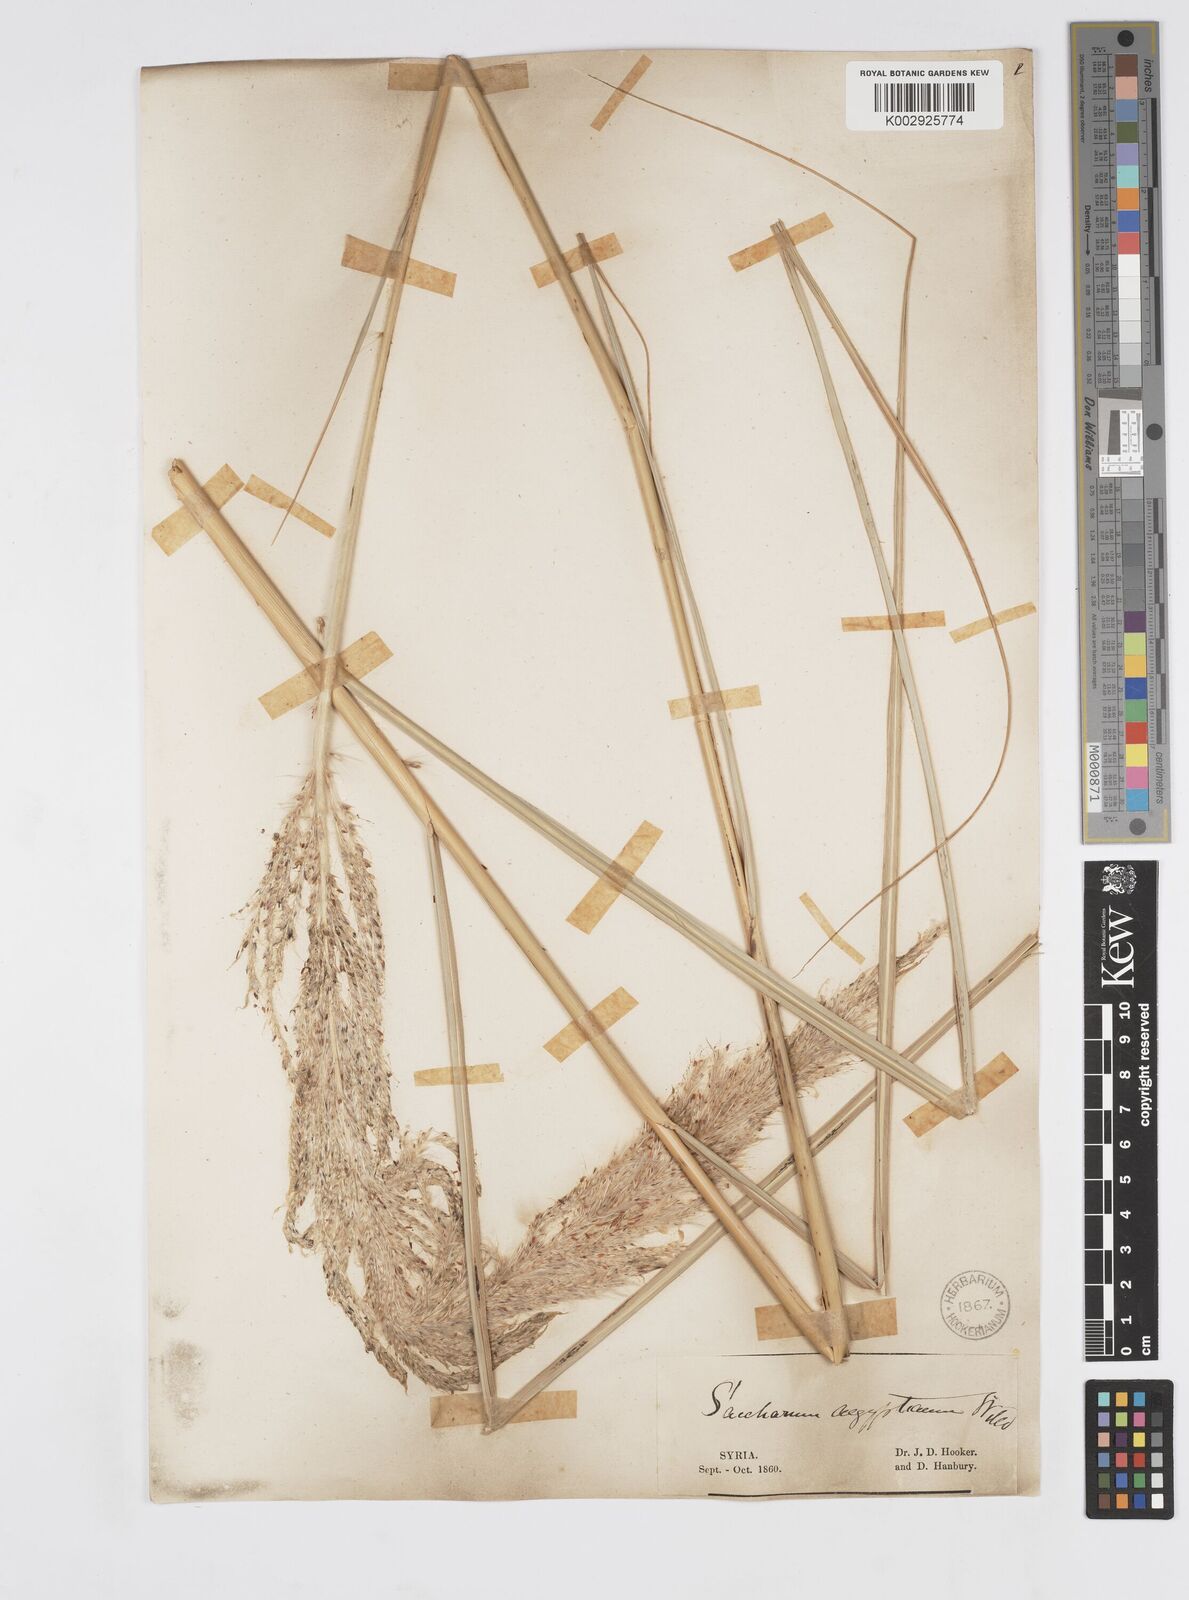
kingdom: Plantae
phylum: Tracheophyta
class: Liliopsida
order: Poales
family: Poaceae
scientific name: Poaceae
